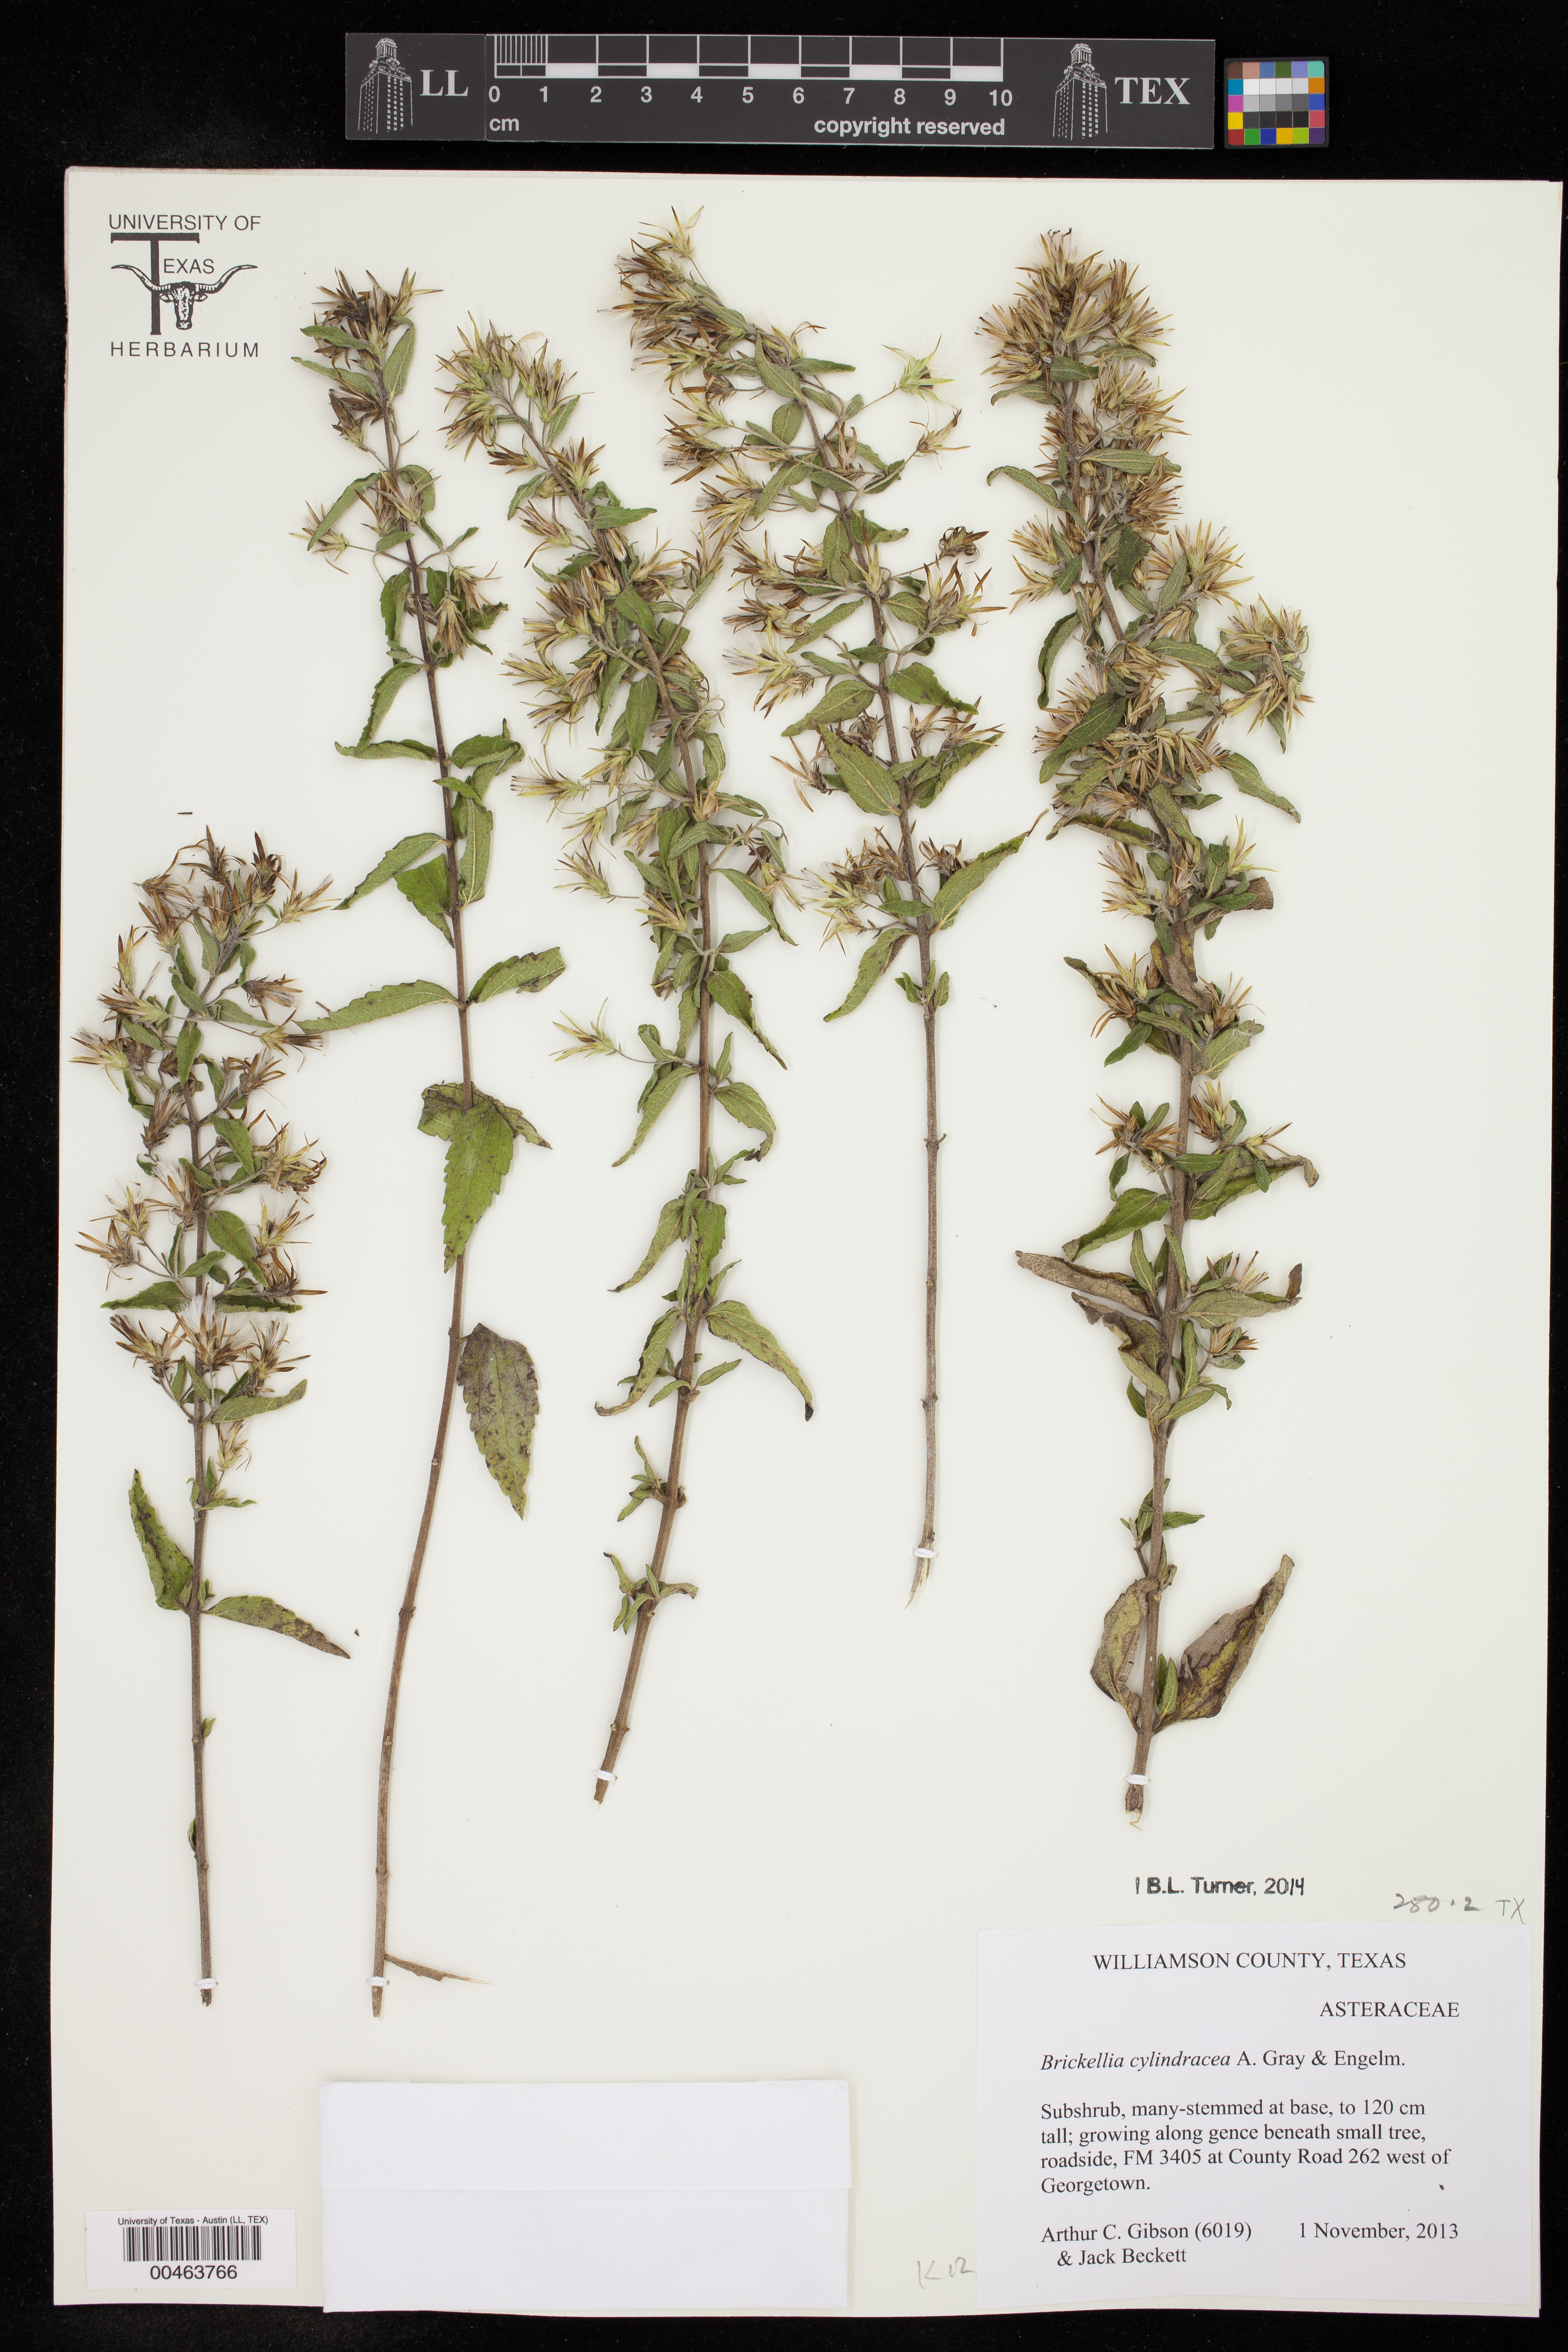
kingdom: Plantae
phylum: Tracheophyta
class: Magnoliopsida
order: Asterales
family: Asteraceae
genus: Brickellia
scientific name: Brickellia cylindracea
